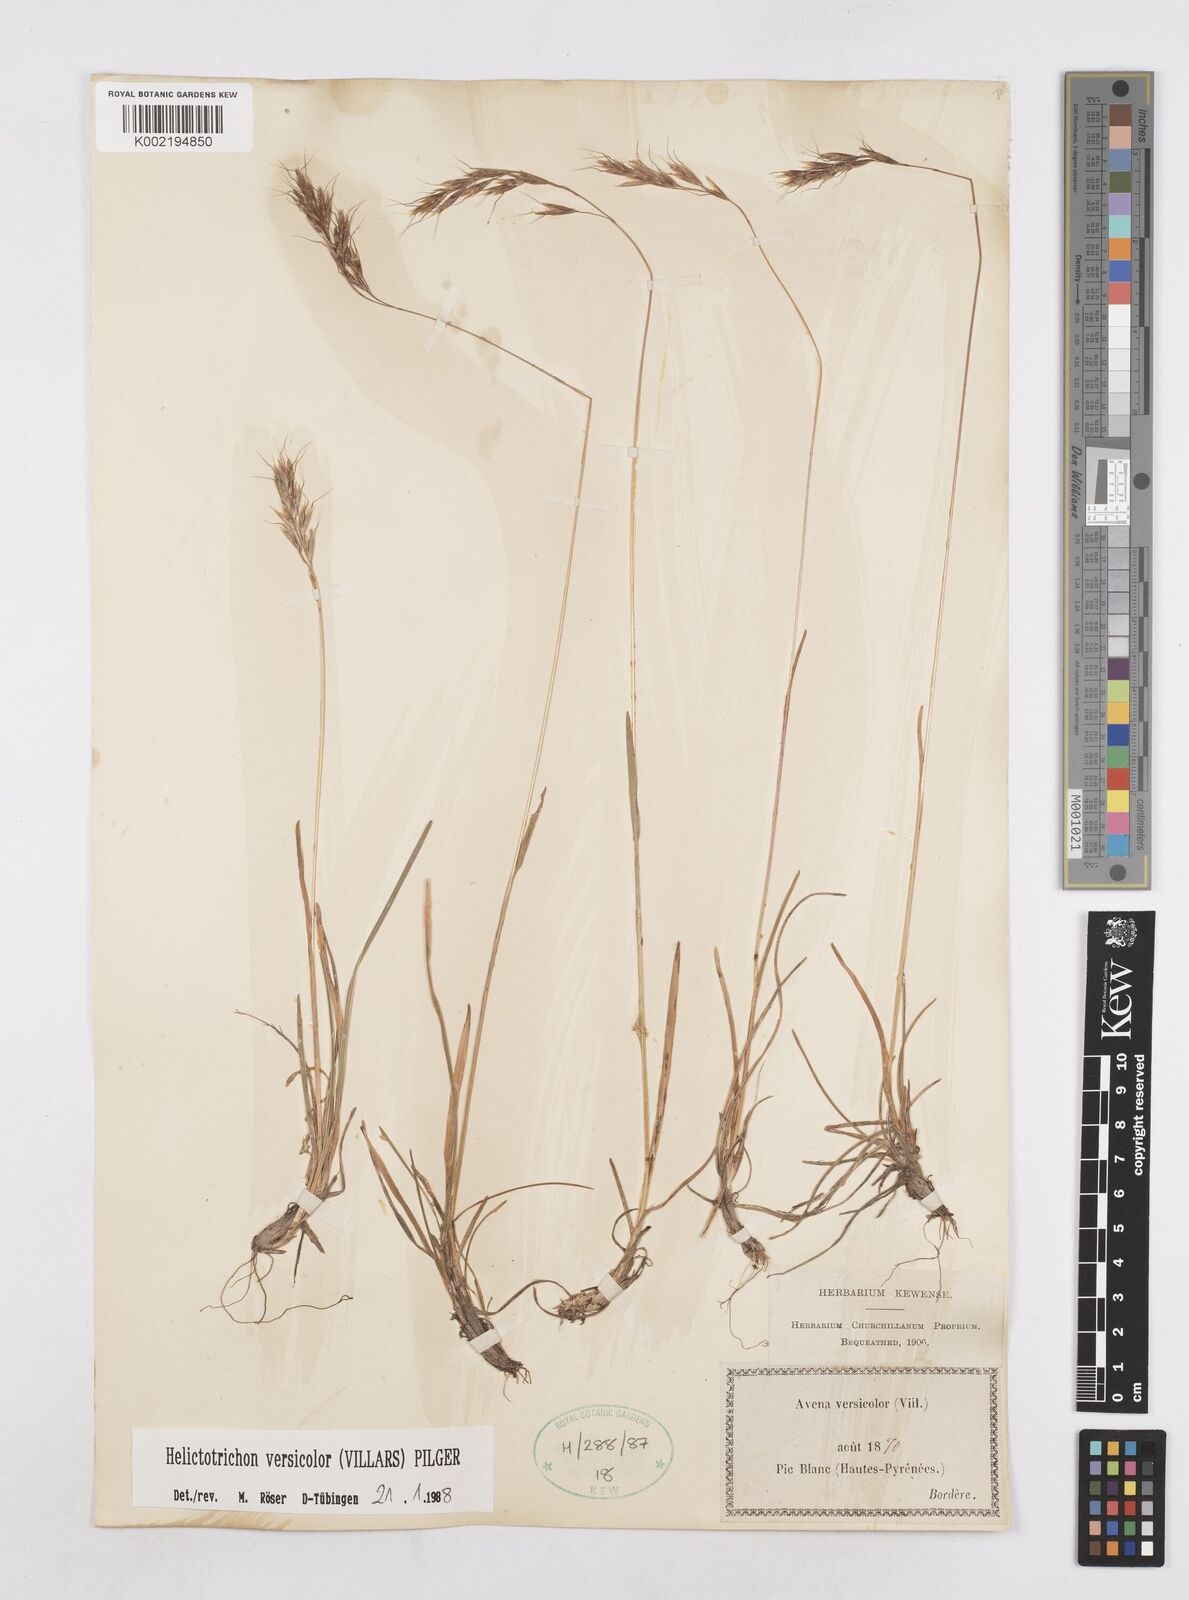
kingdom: Plantae
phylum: Tracheophyta
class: Liliopsida
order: Poales
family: Poaceae
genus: Helictochloa
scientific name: Helictochloa versicolor
